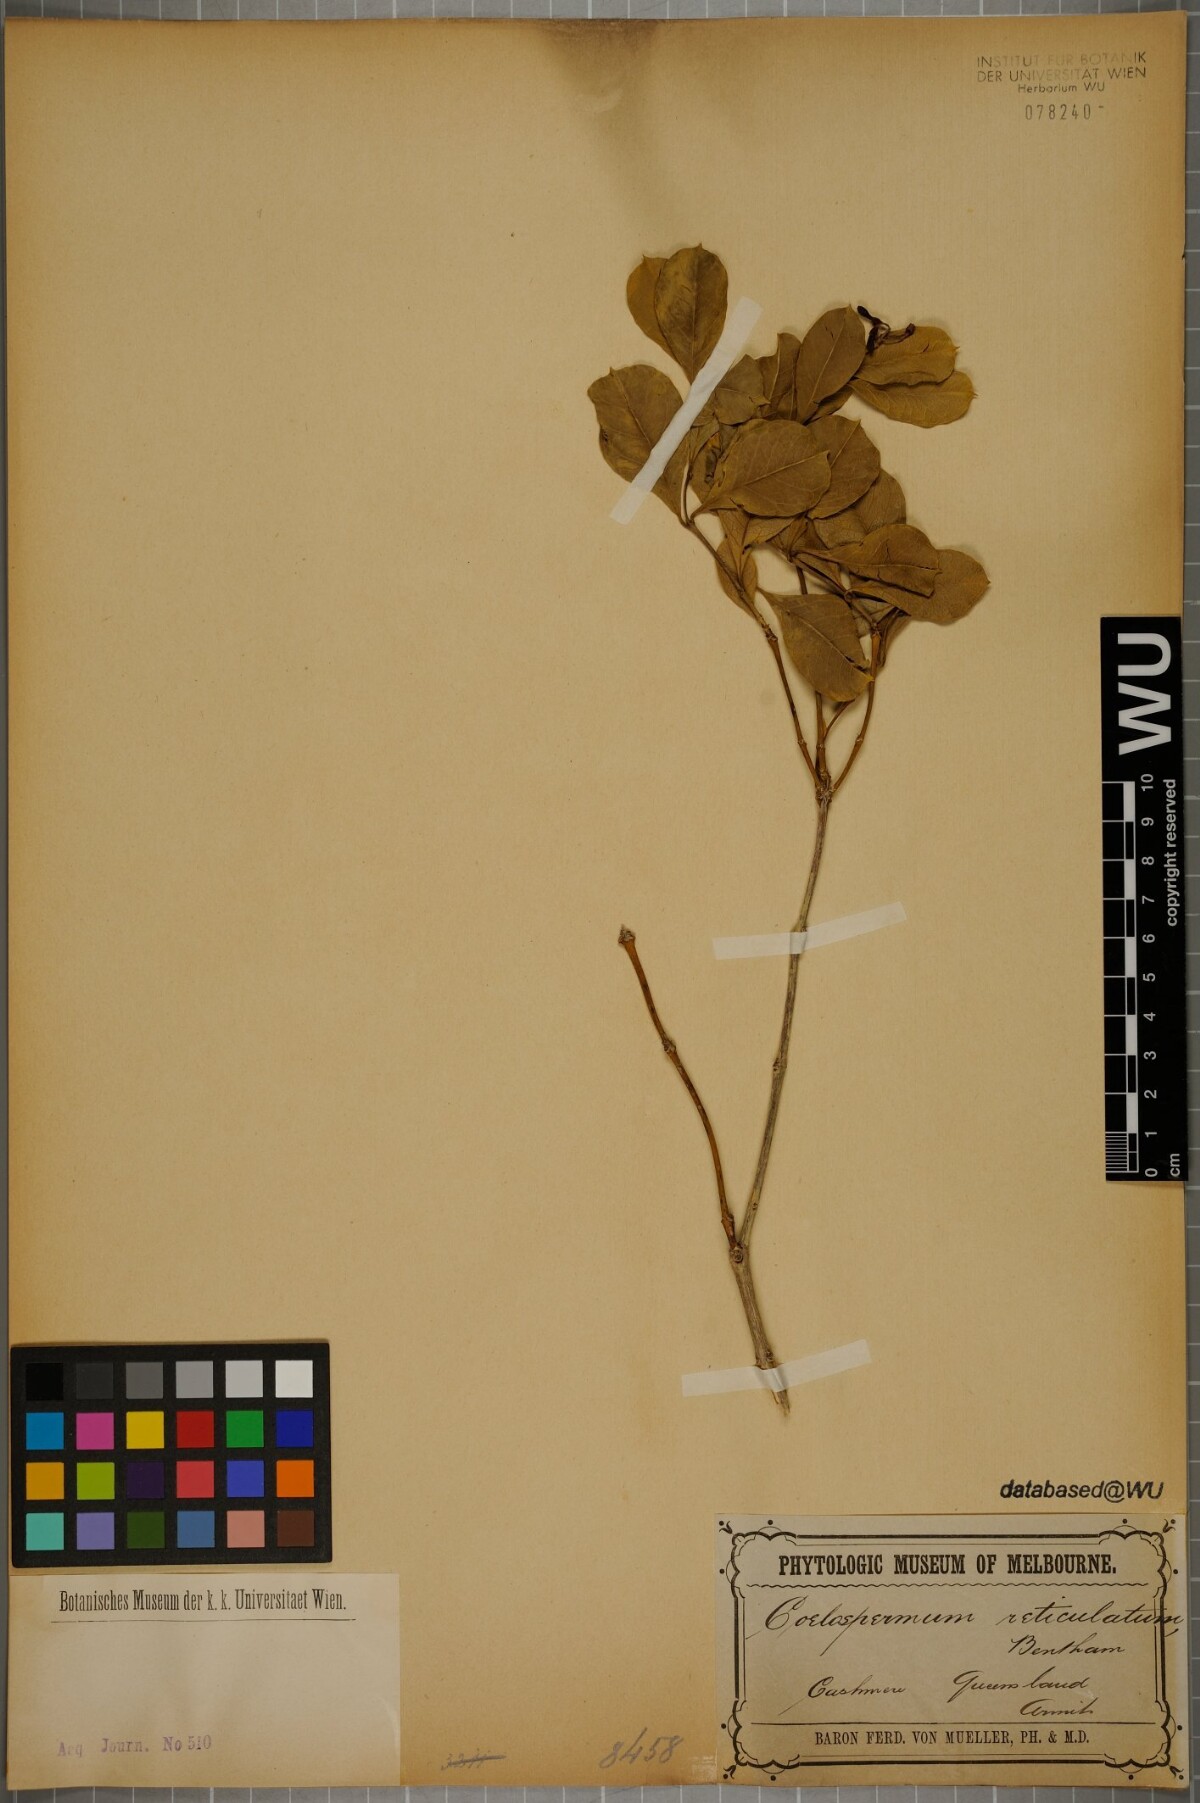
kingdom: Plantae
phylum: Tracheophyta
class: Magnoliopsida
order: Gentianales
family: Rubiaceae
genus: Coelospermum
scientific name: Coelospermum reticulatum
